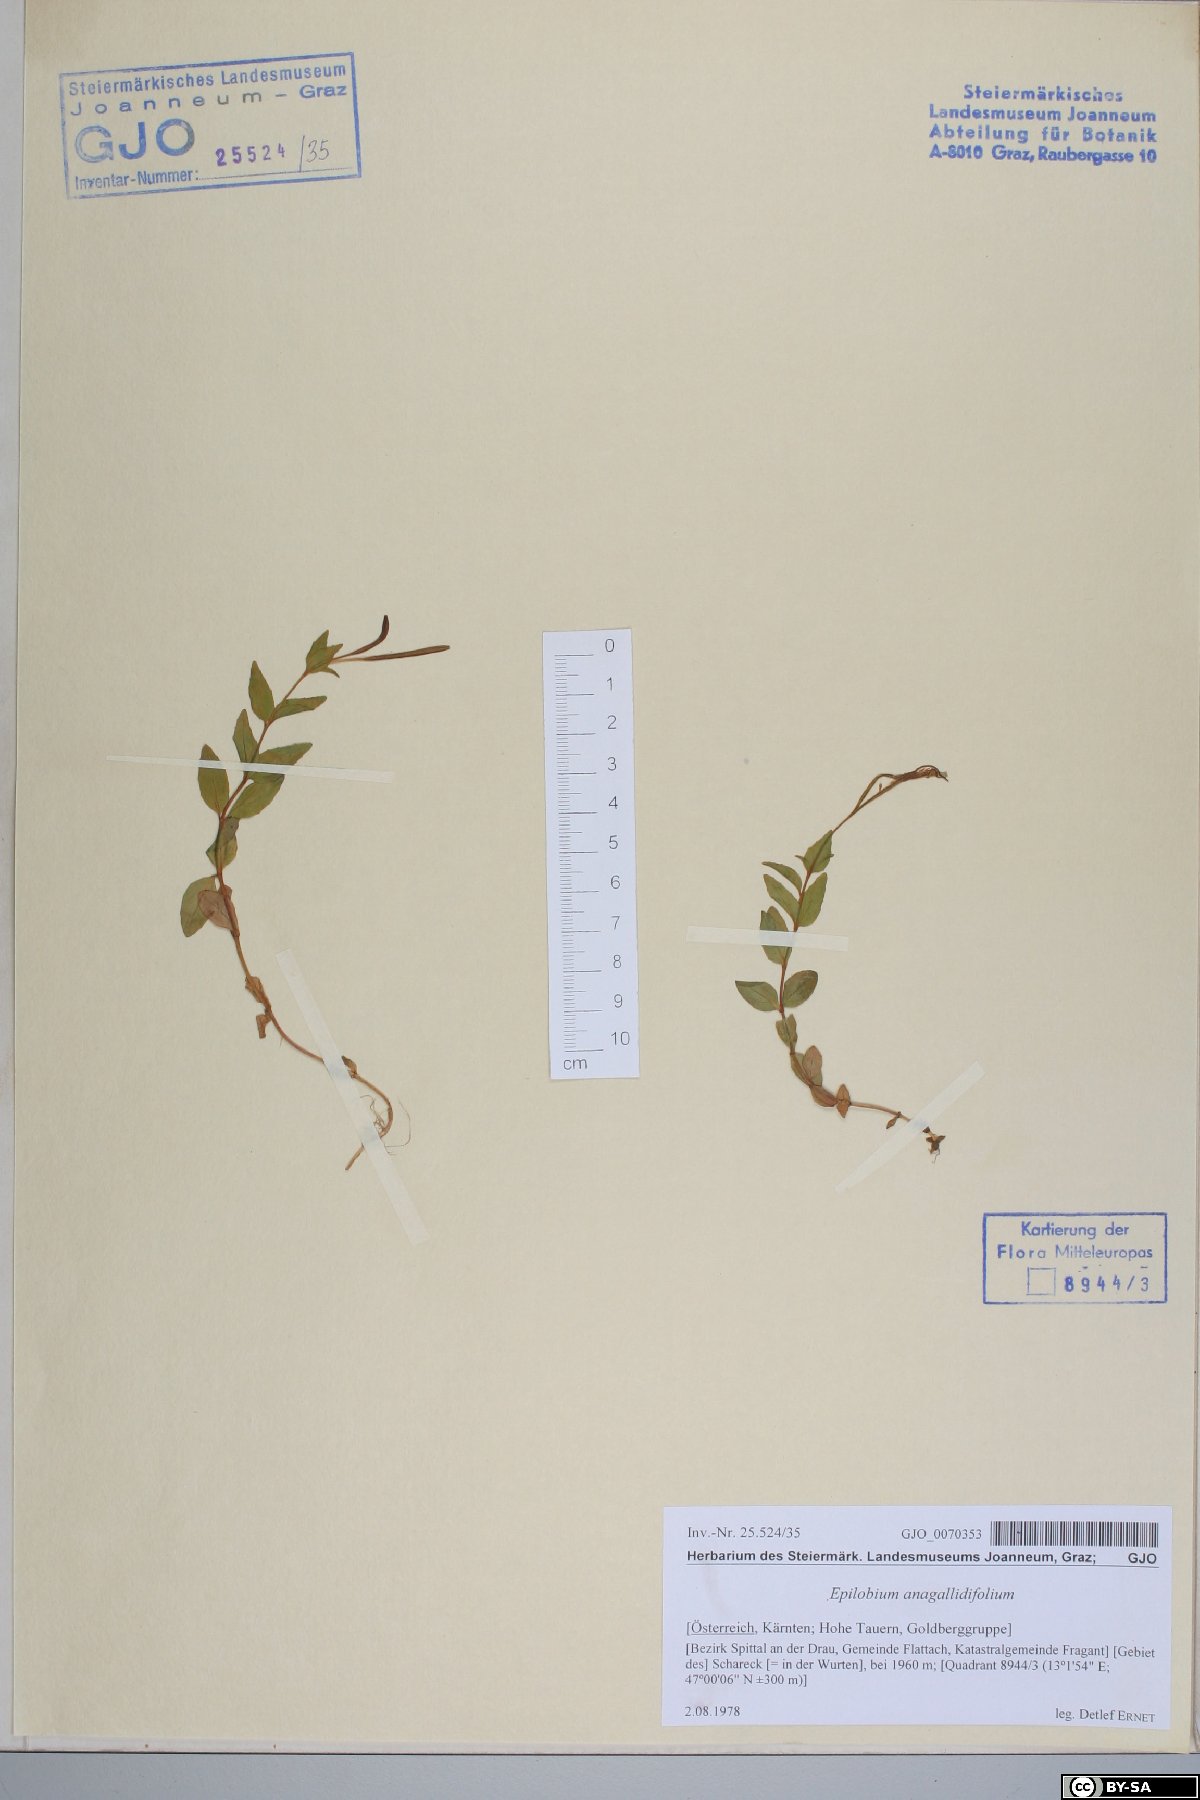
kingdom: Plantae
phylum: Tracheophyta
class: Magnoliopsida
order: Myrtales
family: Onagraceae
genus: Epilobium
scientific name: Epilobium anagallidifolium
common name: Alpine willowherb
